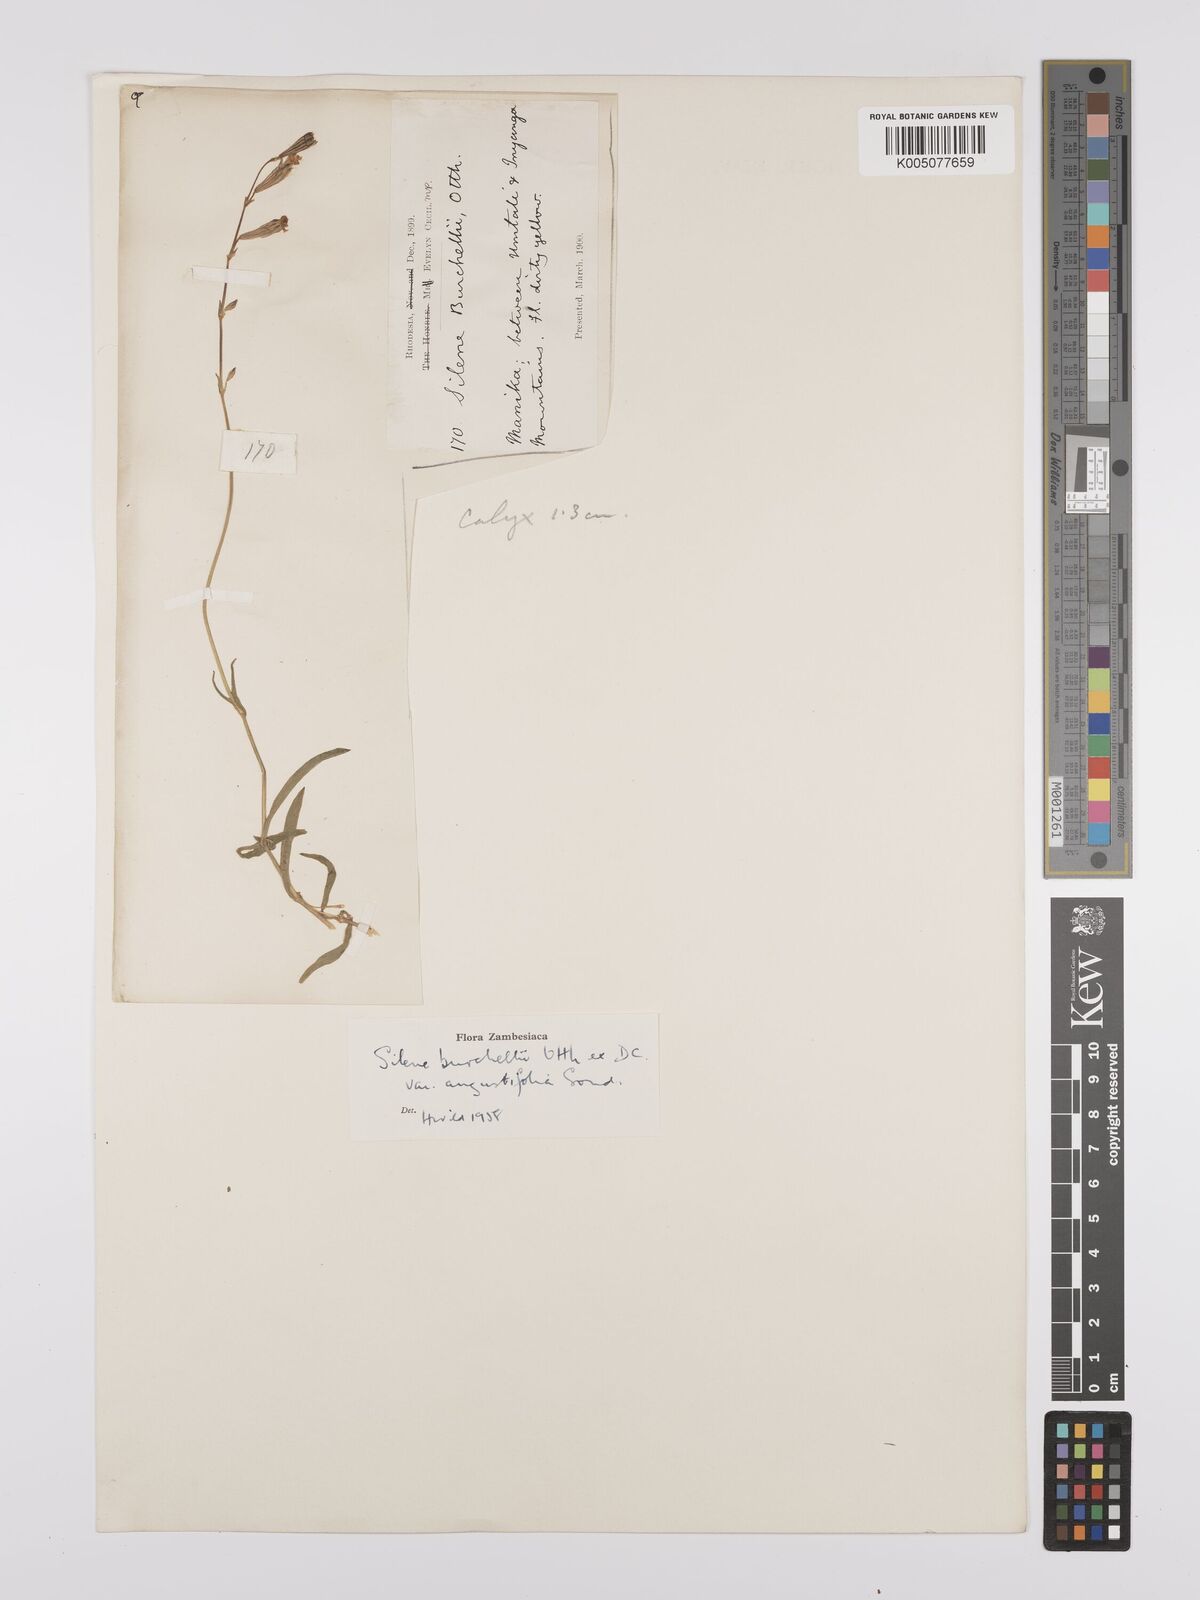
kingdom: Plantae
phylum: Tracheophyta
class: Magnoliopsida
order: Caryophyllales
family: Caryophyllaceae
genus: Silene
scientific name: Silene burchellii
